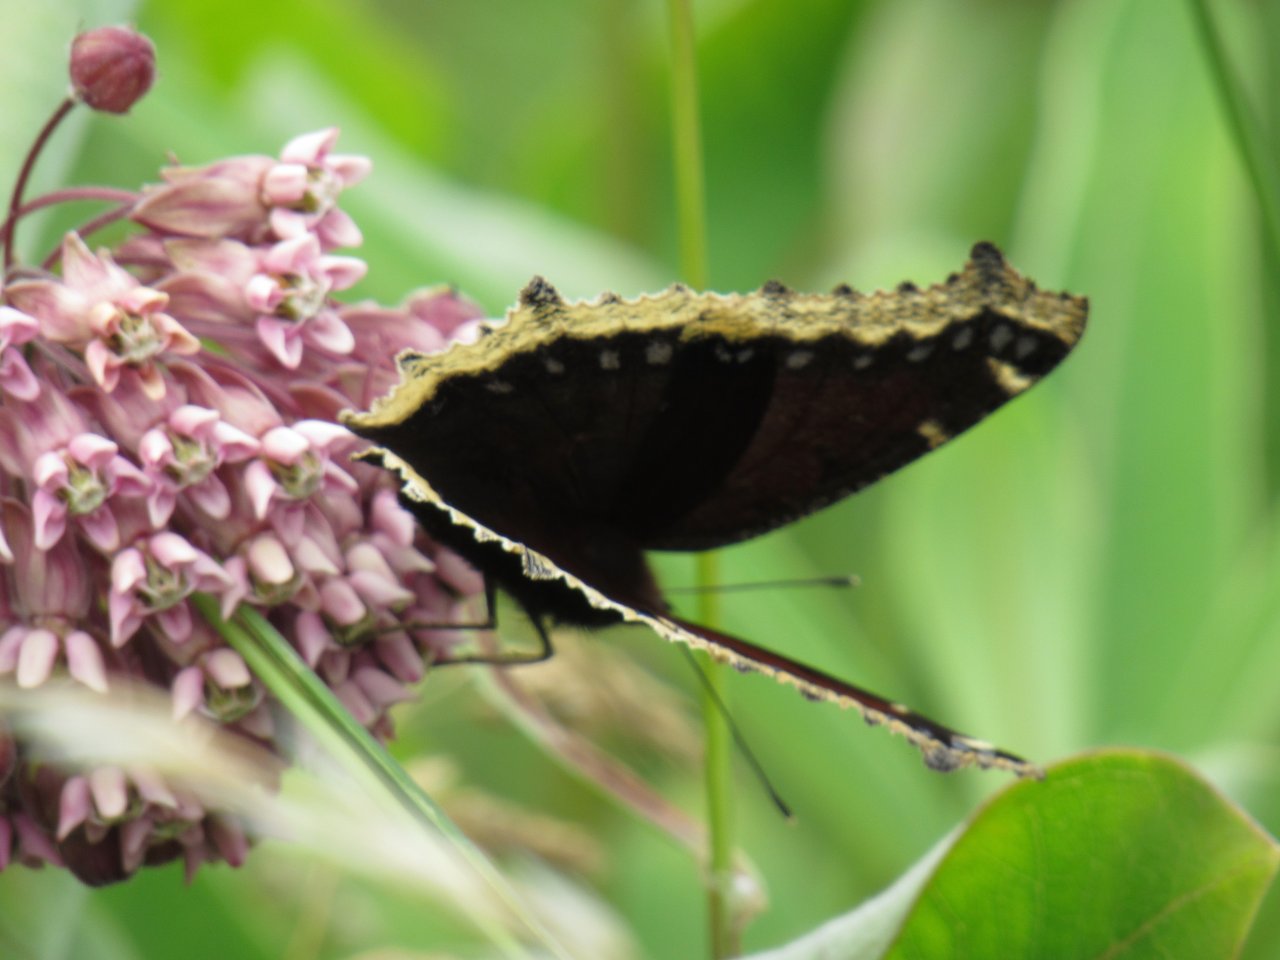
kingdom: Animalia
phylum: Arthropoda
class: Insecta
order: Lepidoptera
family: Nymphalidae
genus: Nymphalis
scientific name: Nymphalis antiopa
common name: Mourning Cloak
